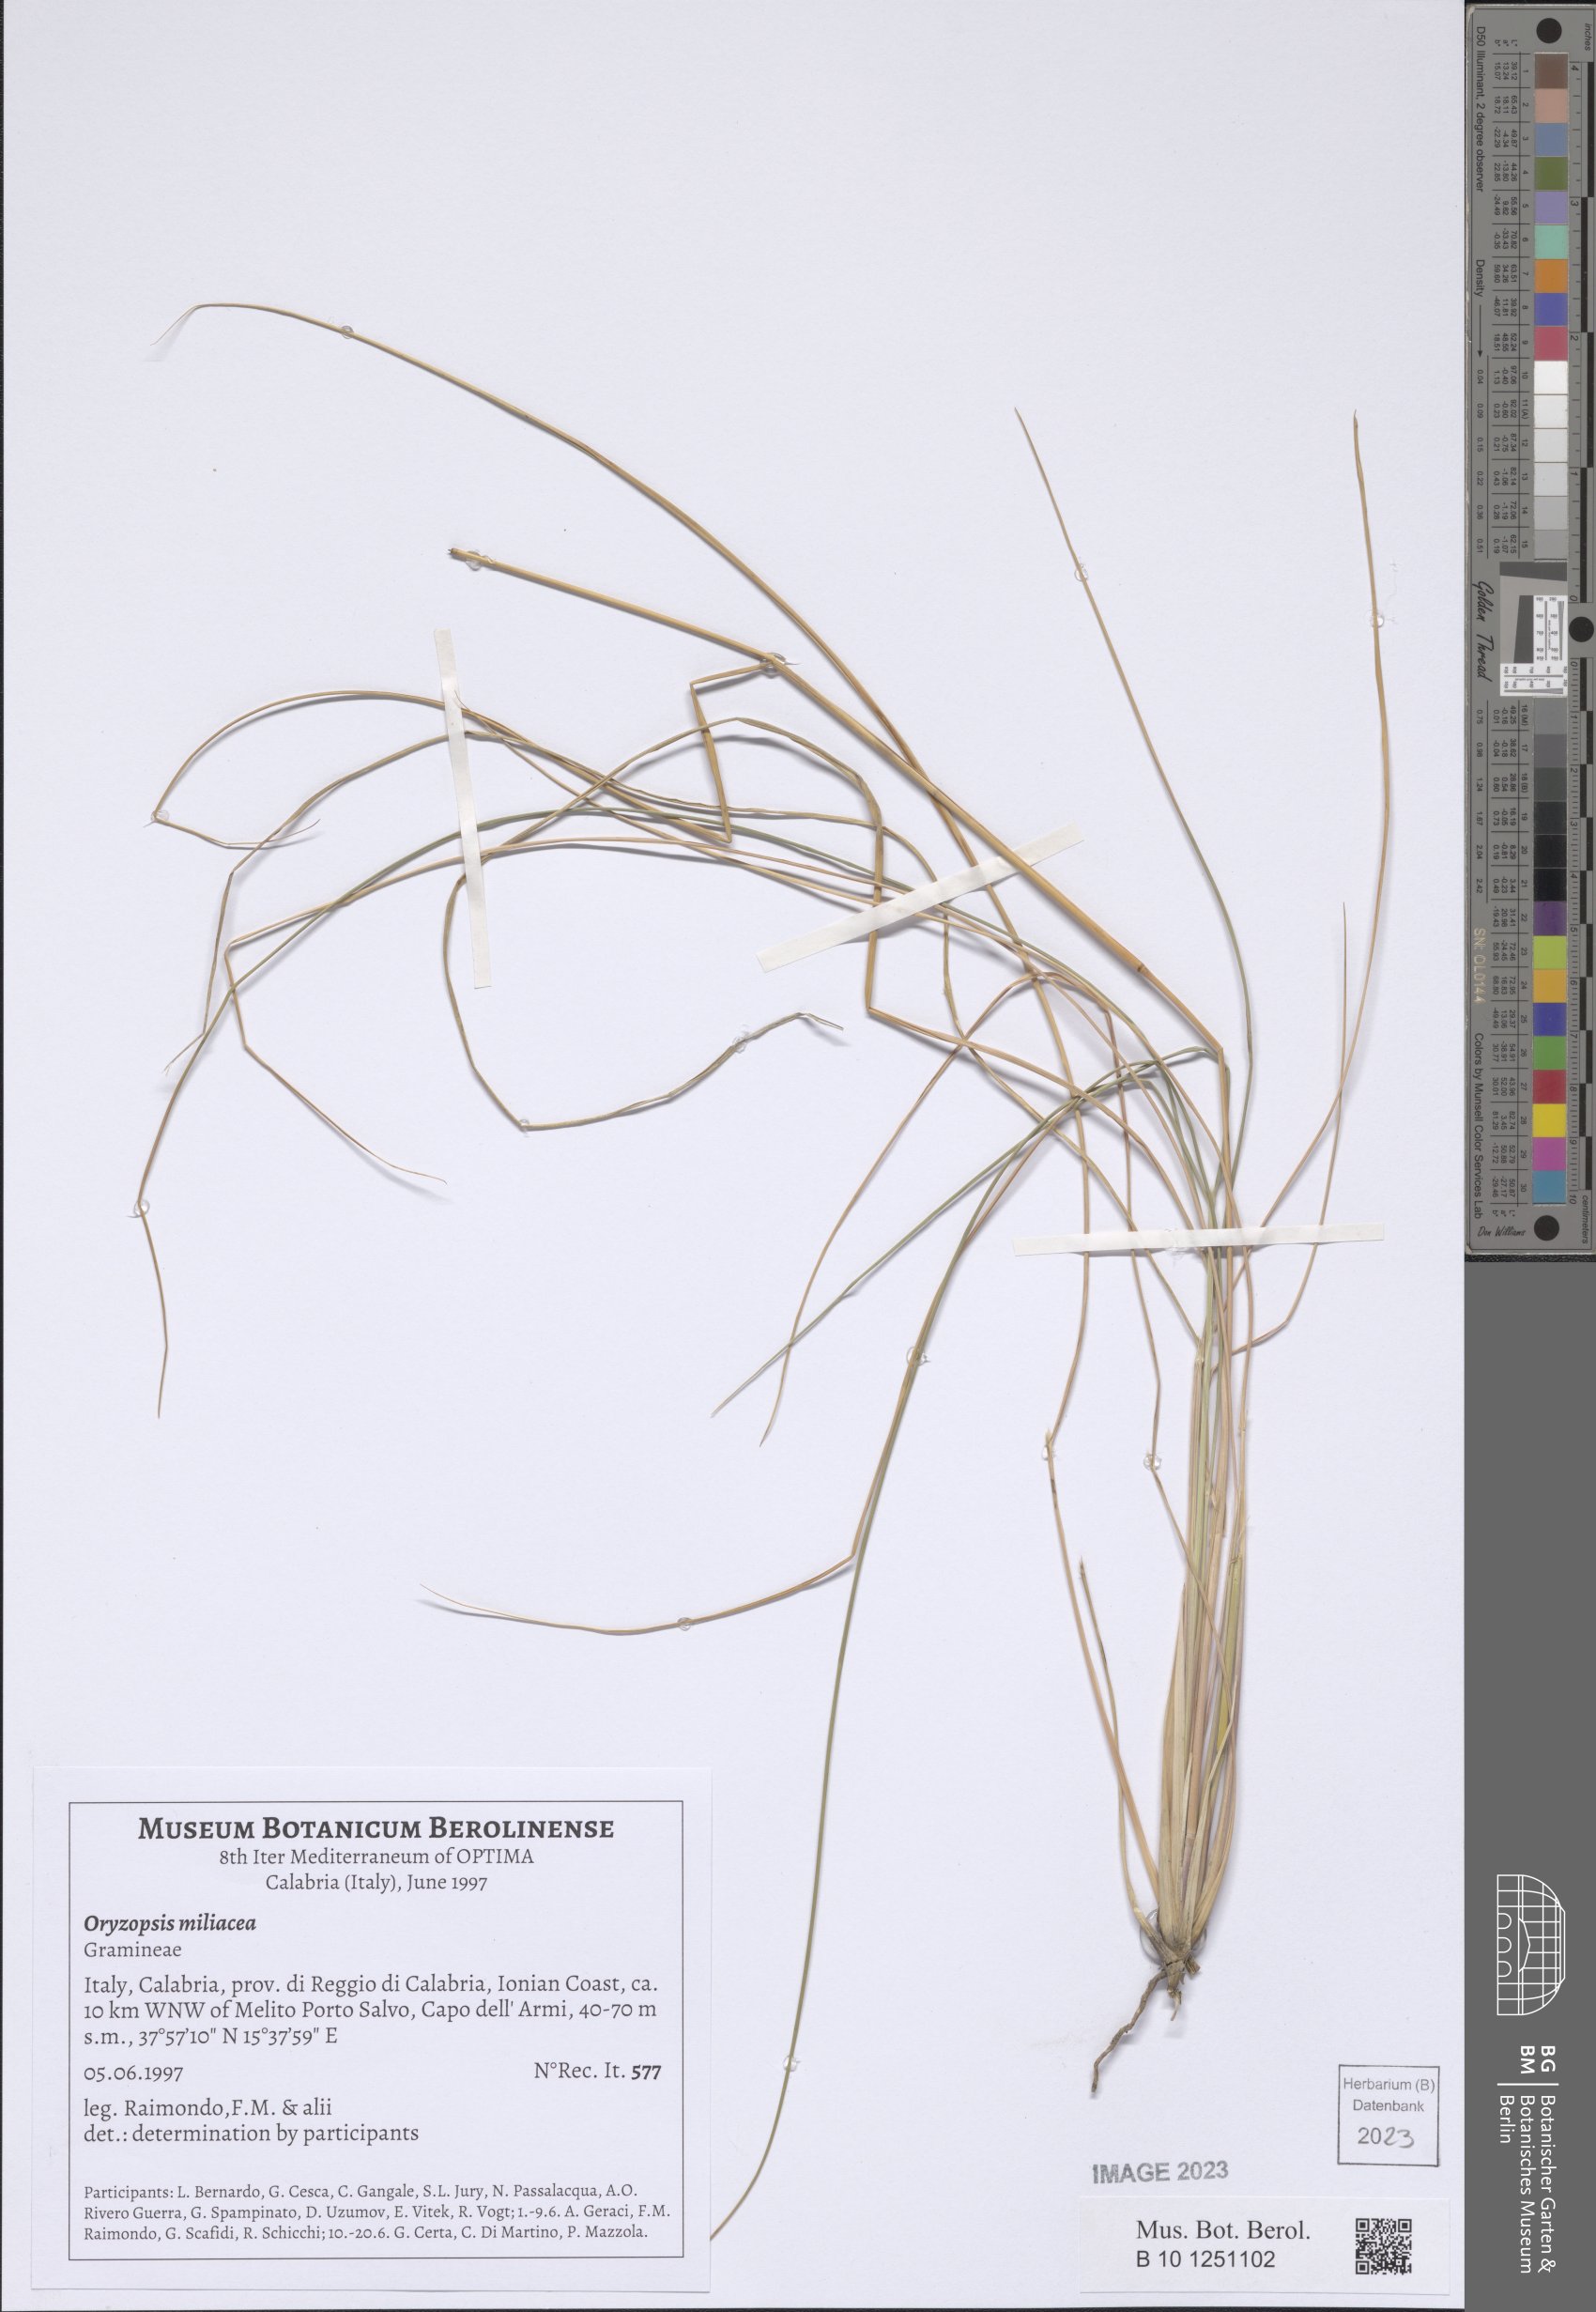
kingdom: Plantae
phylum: Tracheophyta
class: Liliopsida
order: Poales
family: Poaceae
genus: Oloptum
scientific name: Oloptum miliaceum
